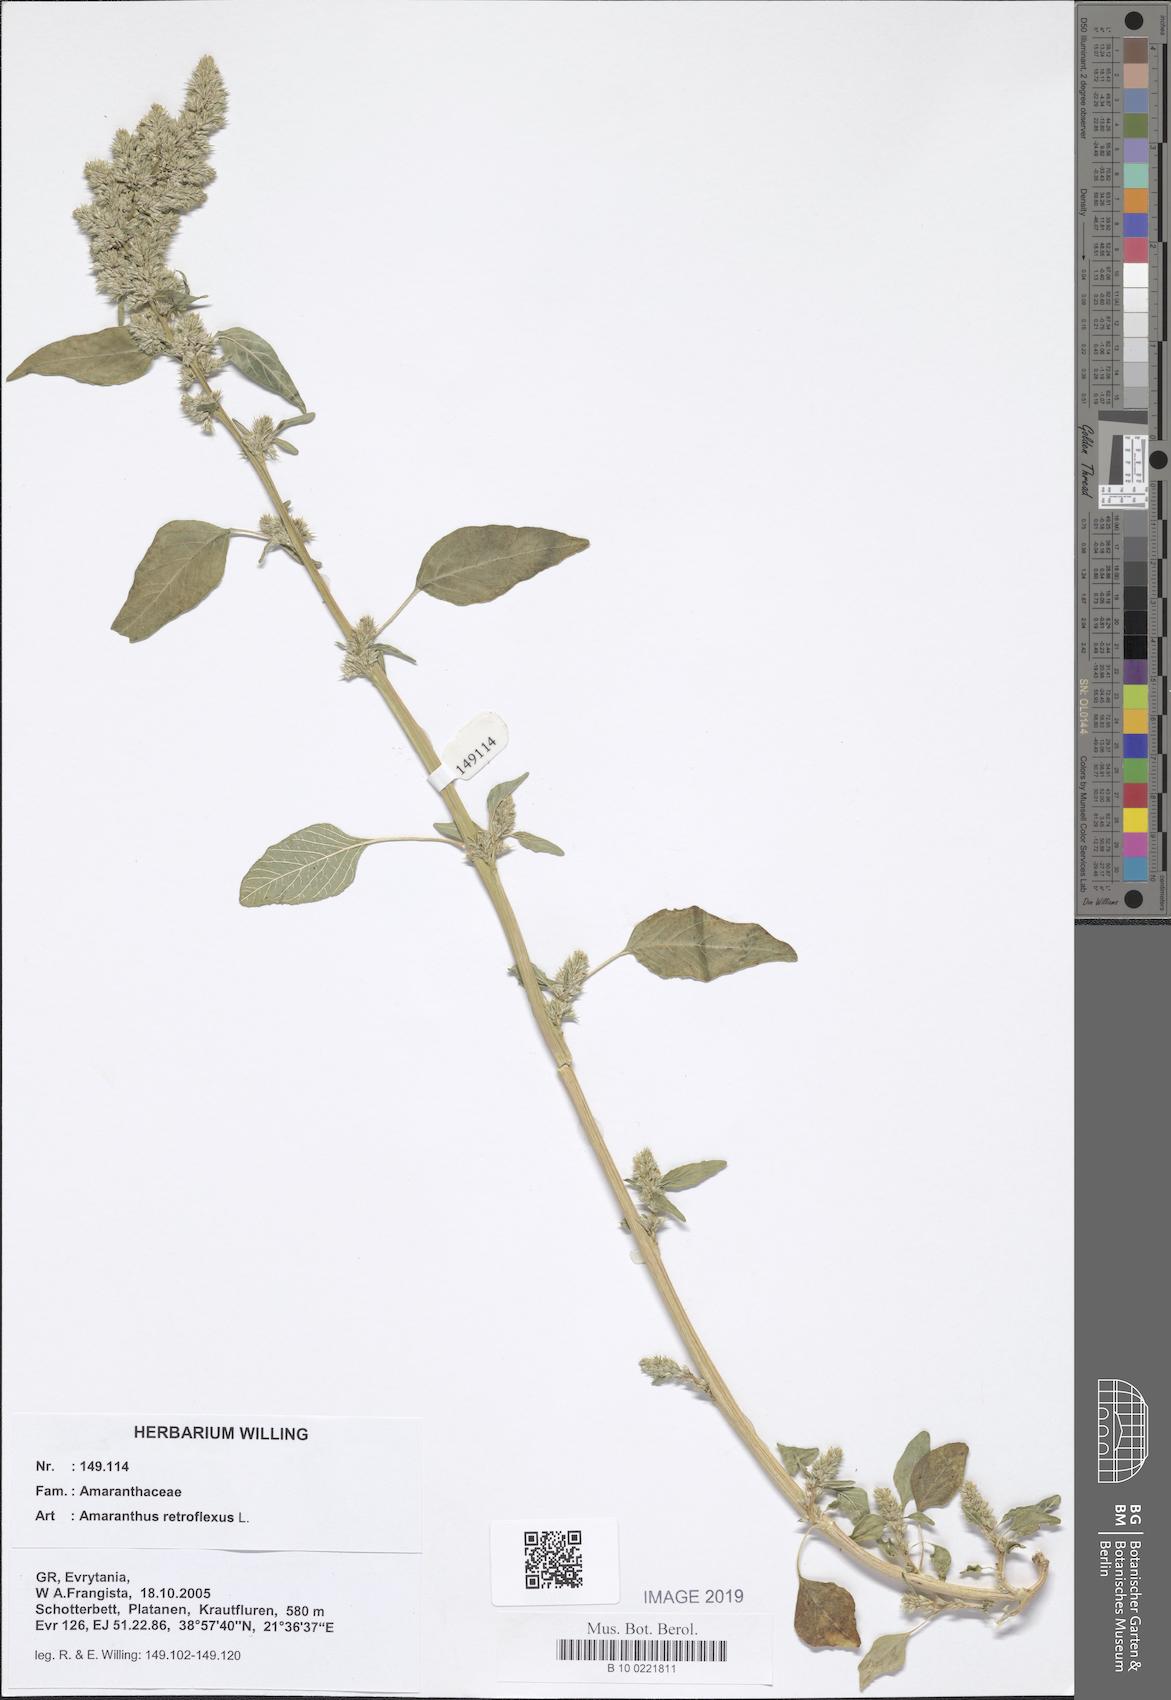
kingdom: Plantae
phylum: Tracheophyta
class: Magnoliopsida
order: Caryophyllales
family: Amaranthaceae
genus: Amaranthus
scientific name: Amaranthus retroflexus
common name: Redroot amaranth
